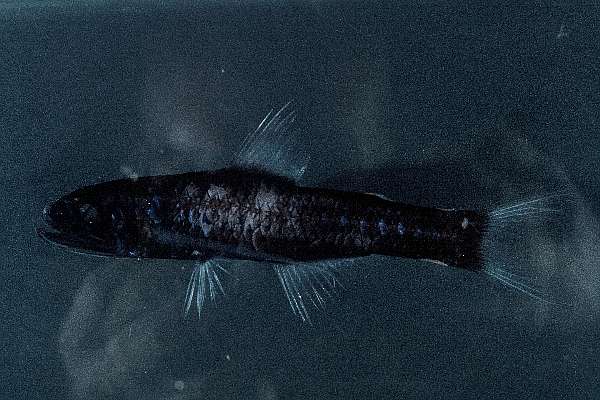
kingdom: Animalia
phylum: Chordata
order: Myctophiformes
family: Myctophidae
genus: Lampanyctus
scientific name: Lampanyctus australis
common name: Austral lanternfish
